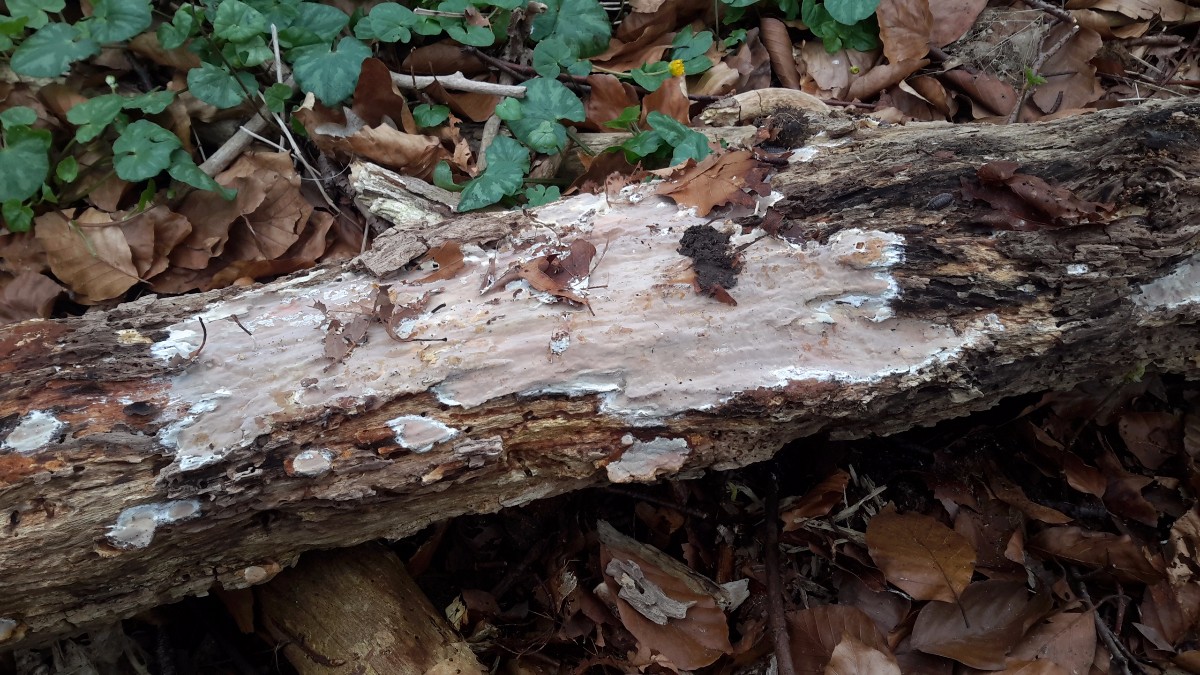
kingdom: Fungi
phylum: Basidiomycota
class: Agaricomycetes
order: Russulales
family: Peniophoraceae
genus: Scytinostroma
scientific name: Scytinostroma hemidichophyticum
